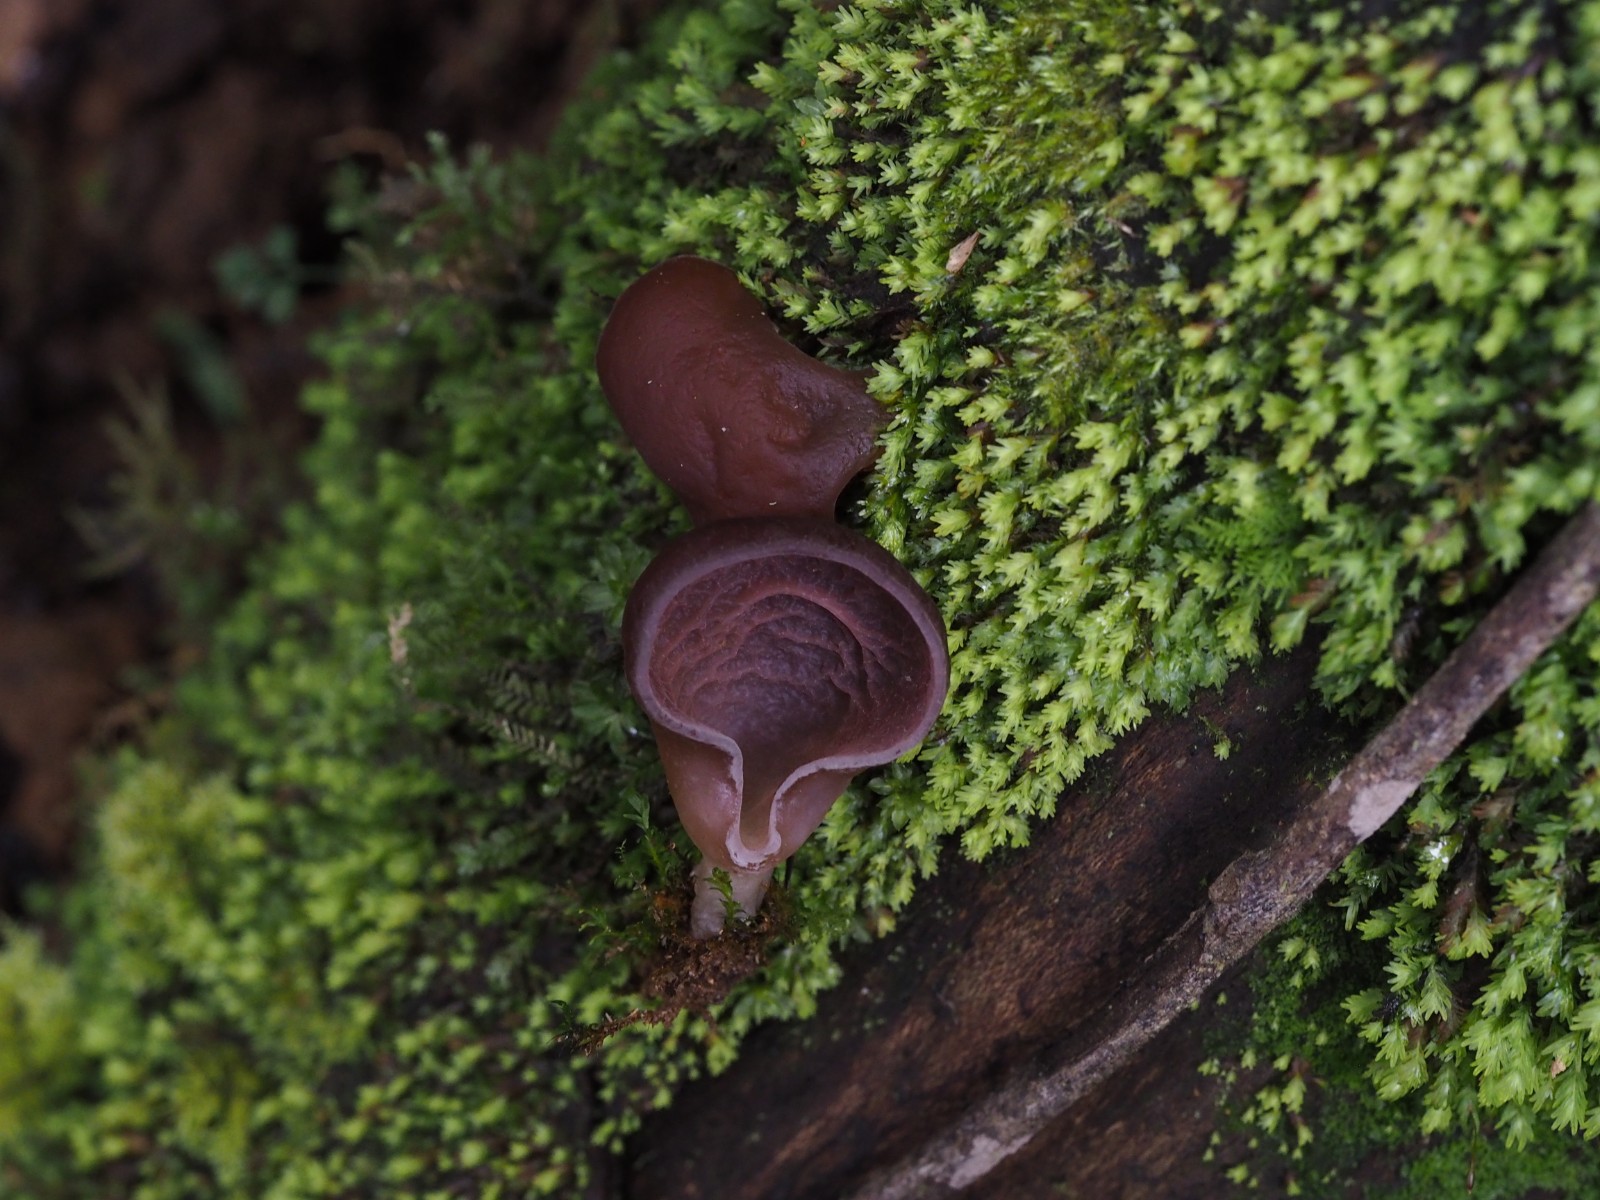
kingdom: Fungi
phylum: Basidiomycota
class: Agaricomycetes
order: Auriculariales
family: Auriculariaceae
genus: Auricularia
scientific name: Auricularia
